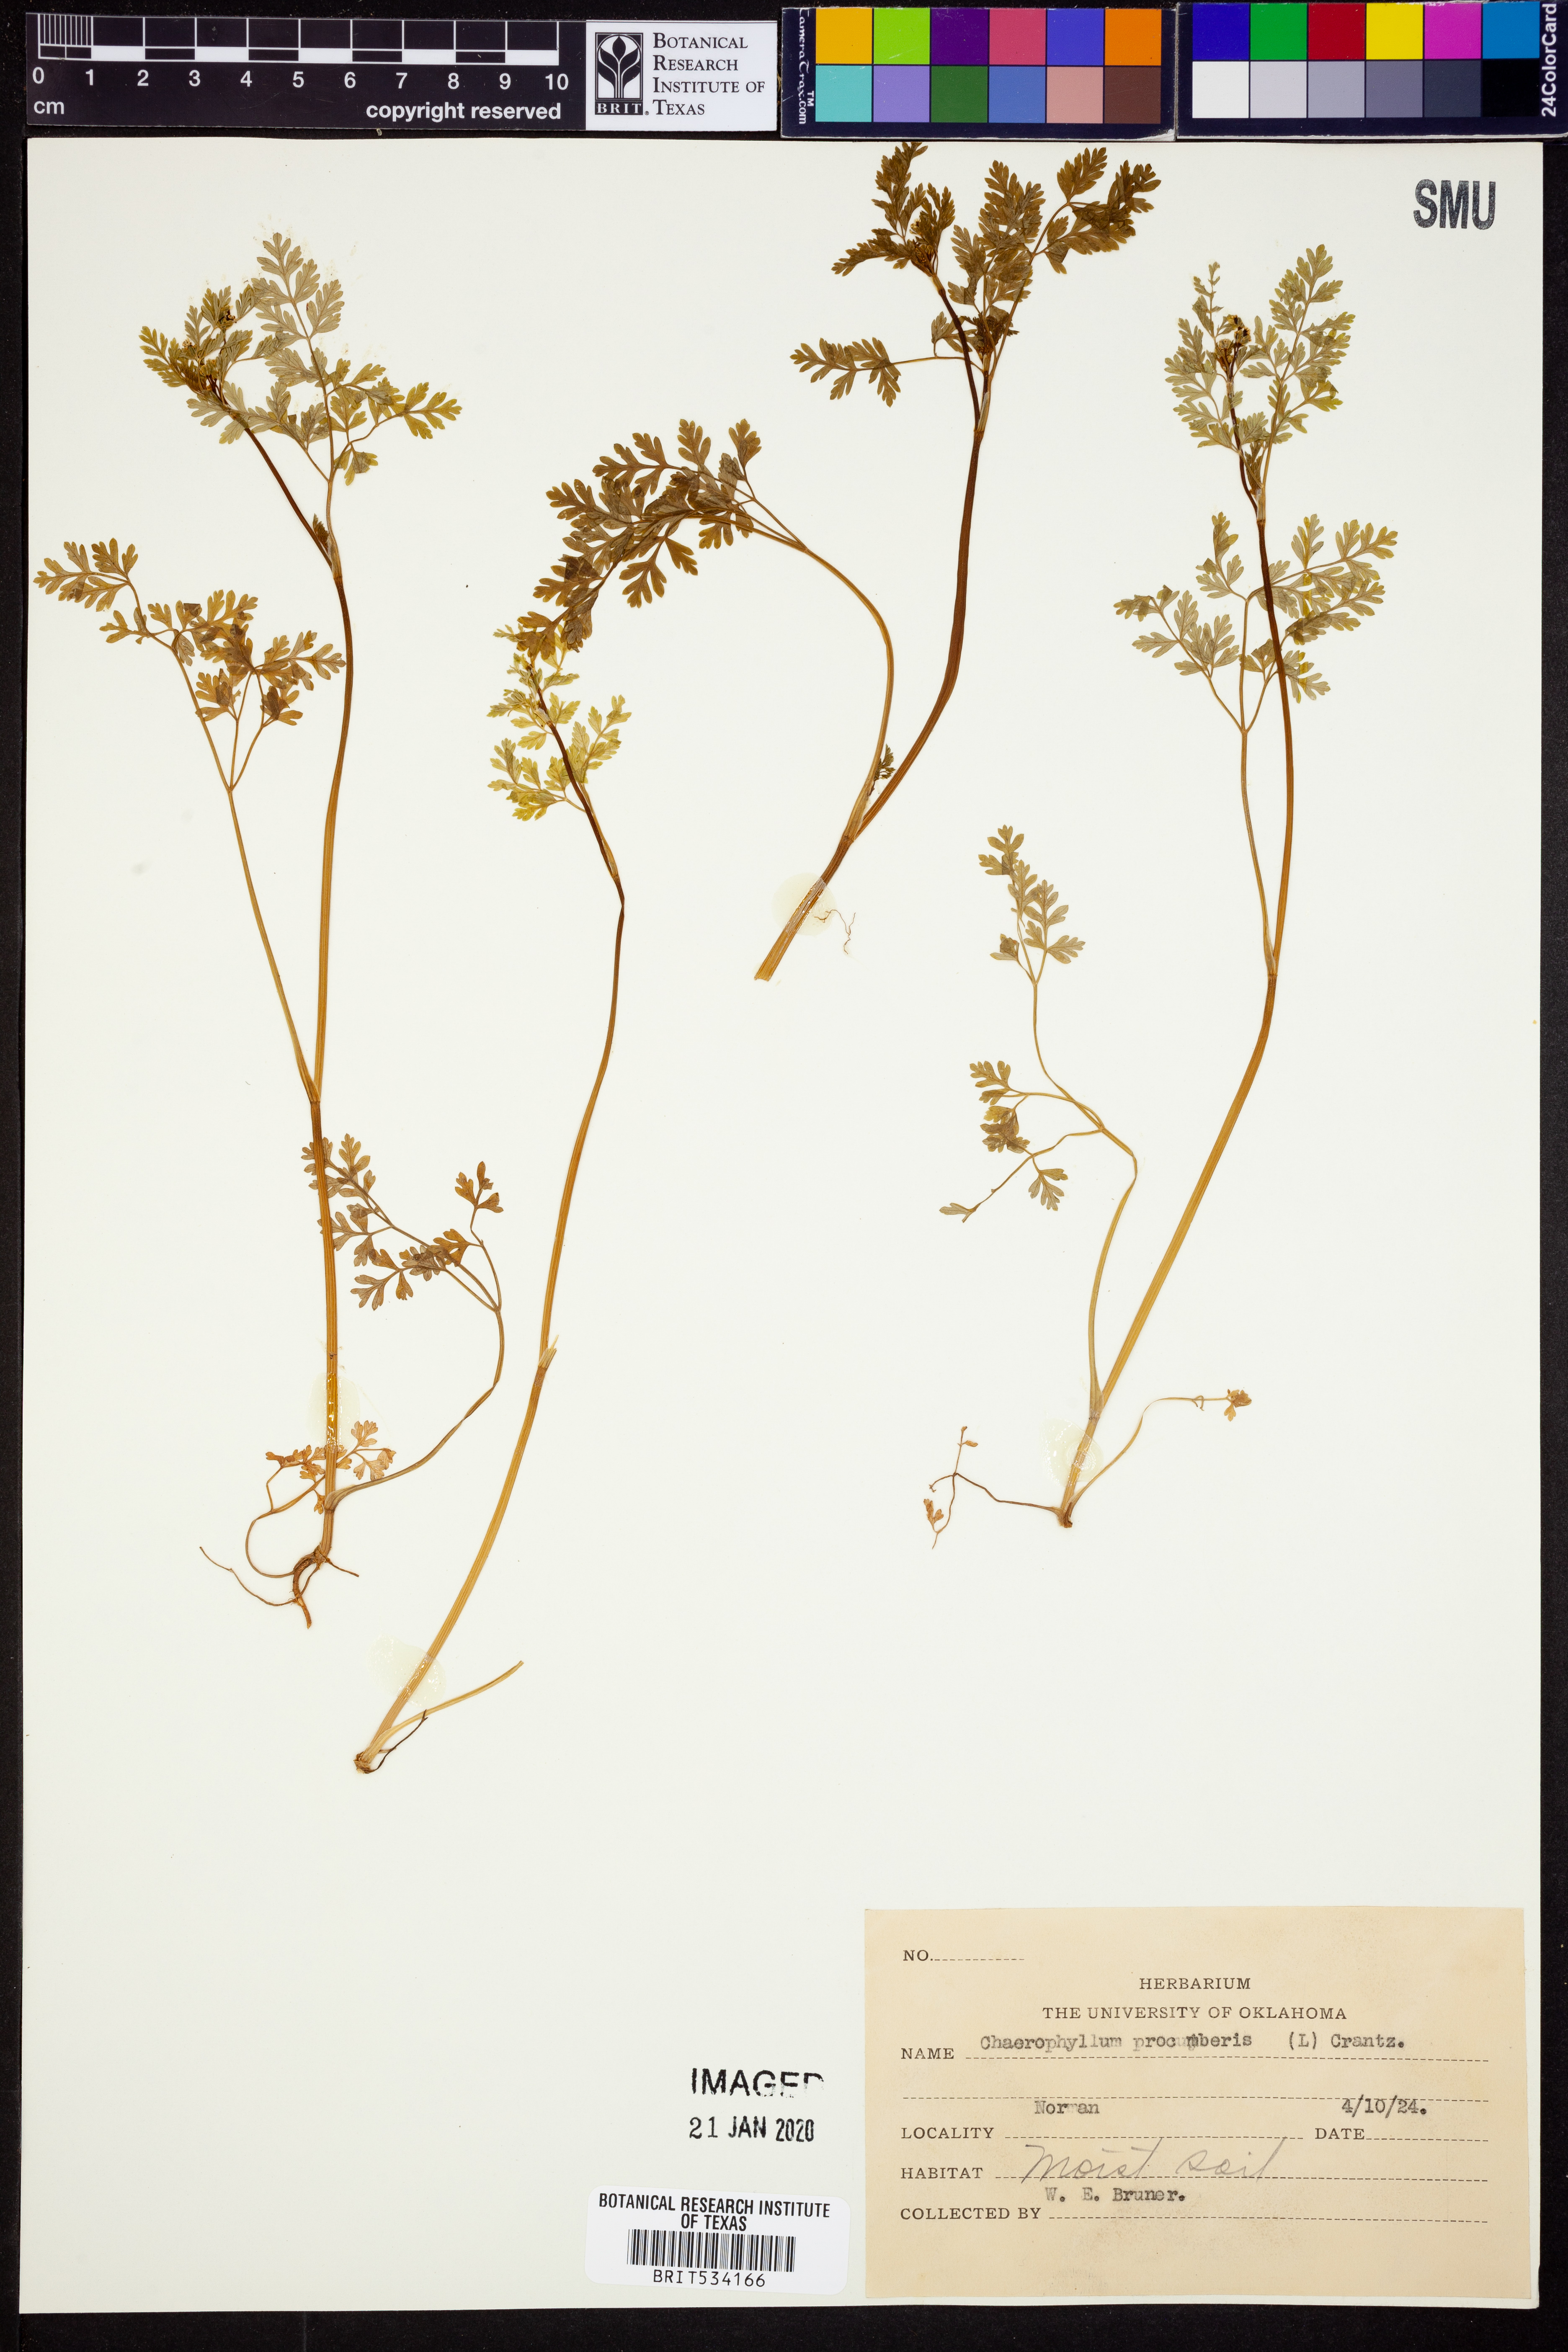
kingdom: Plantae
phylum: Tracheophyta
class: Magnoliopsida
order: Apiales
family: Apiaceae
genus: Chaerophyllum
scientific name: Chaerophyllum procumbens
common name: Spreading chervil
